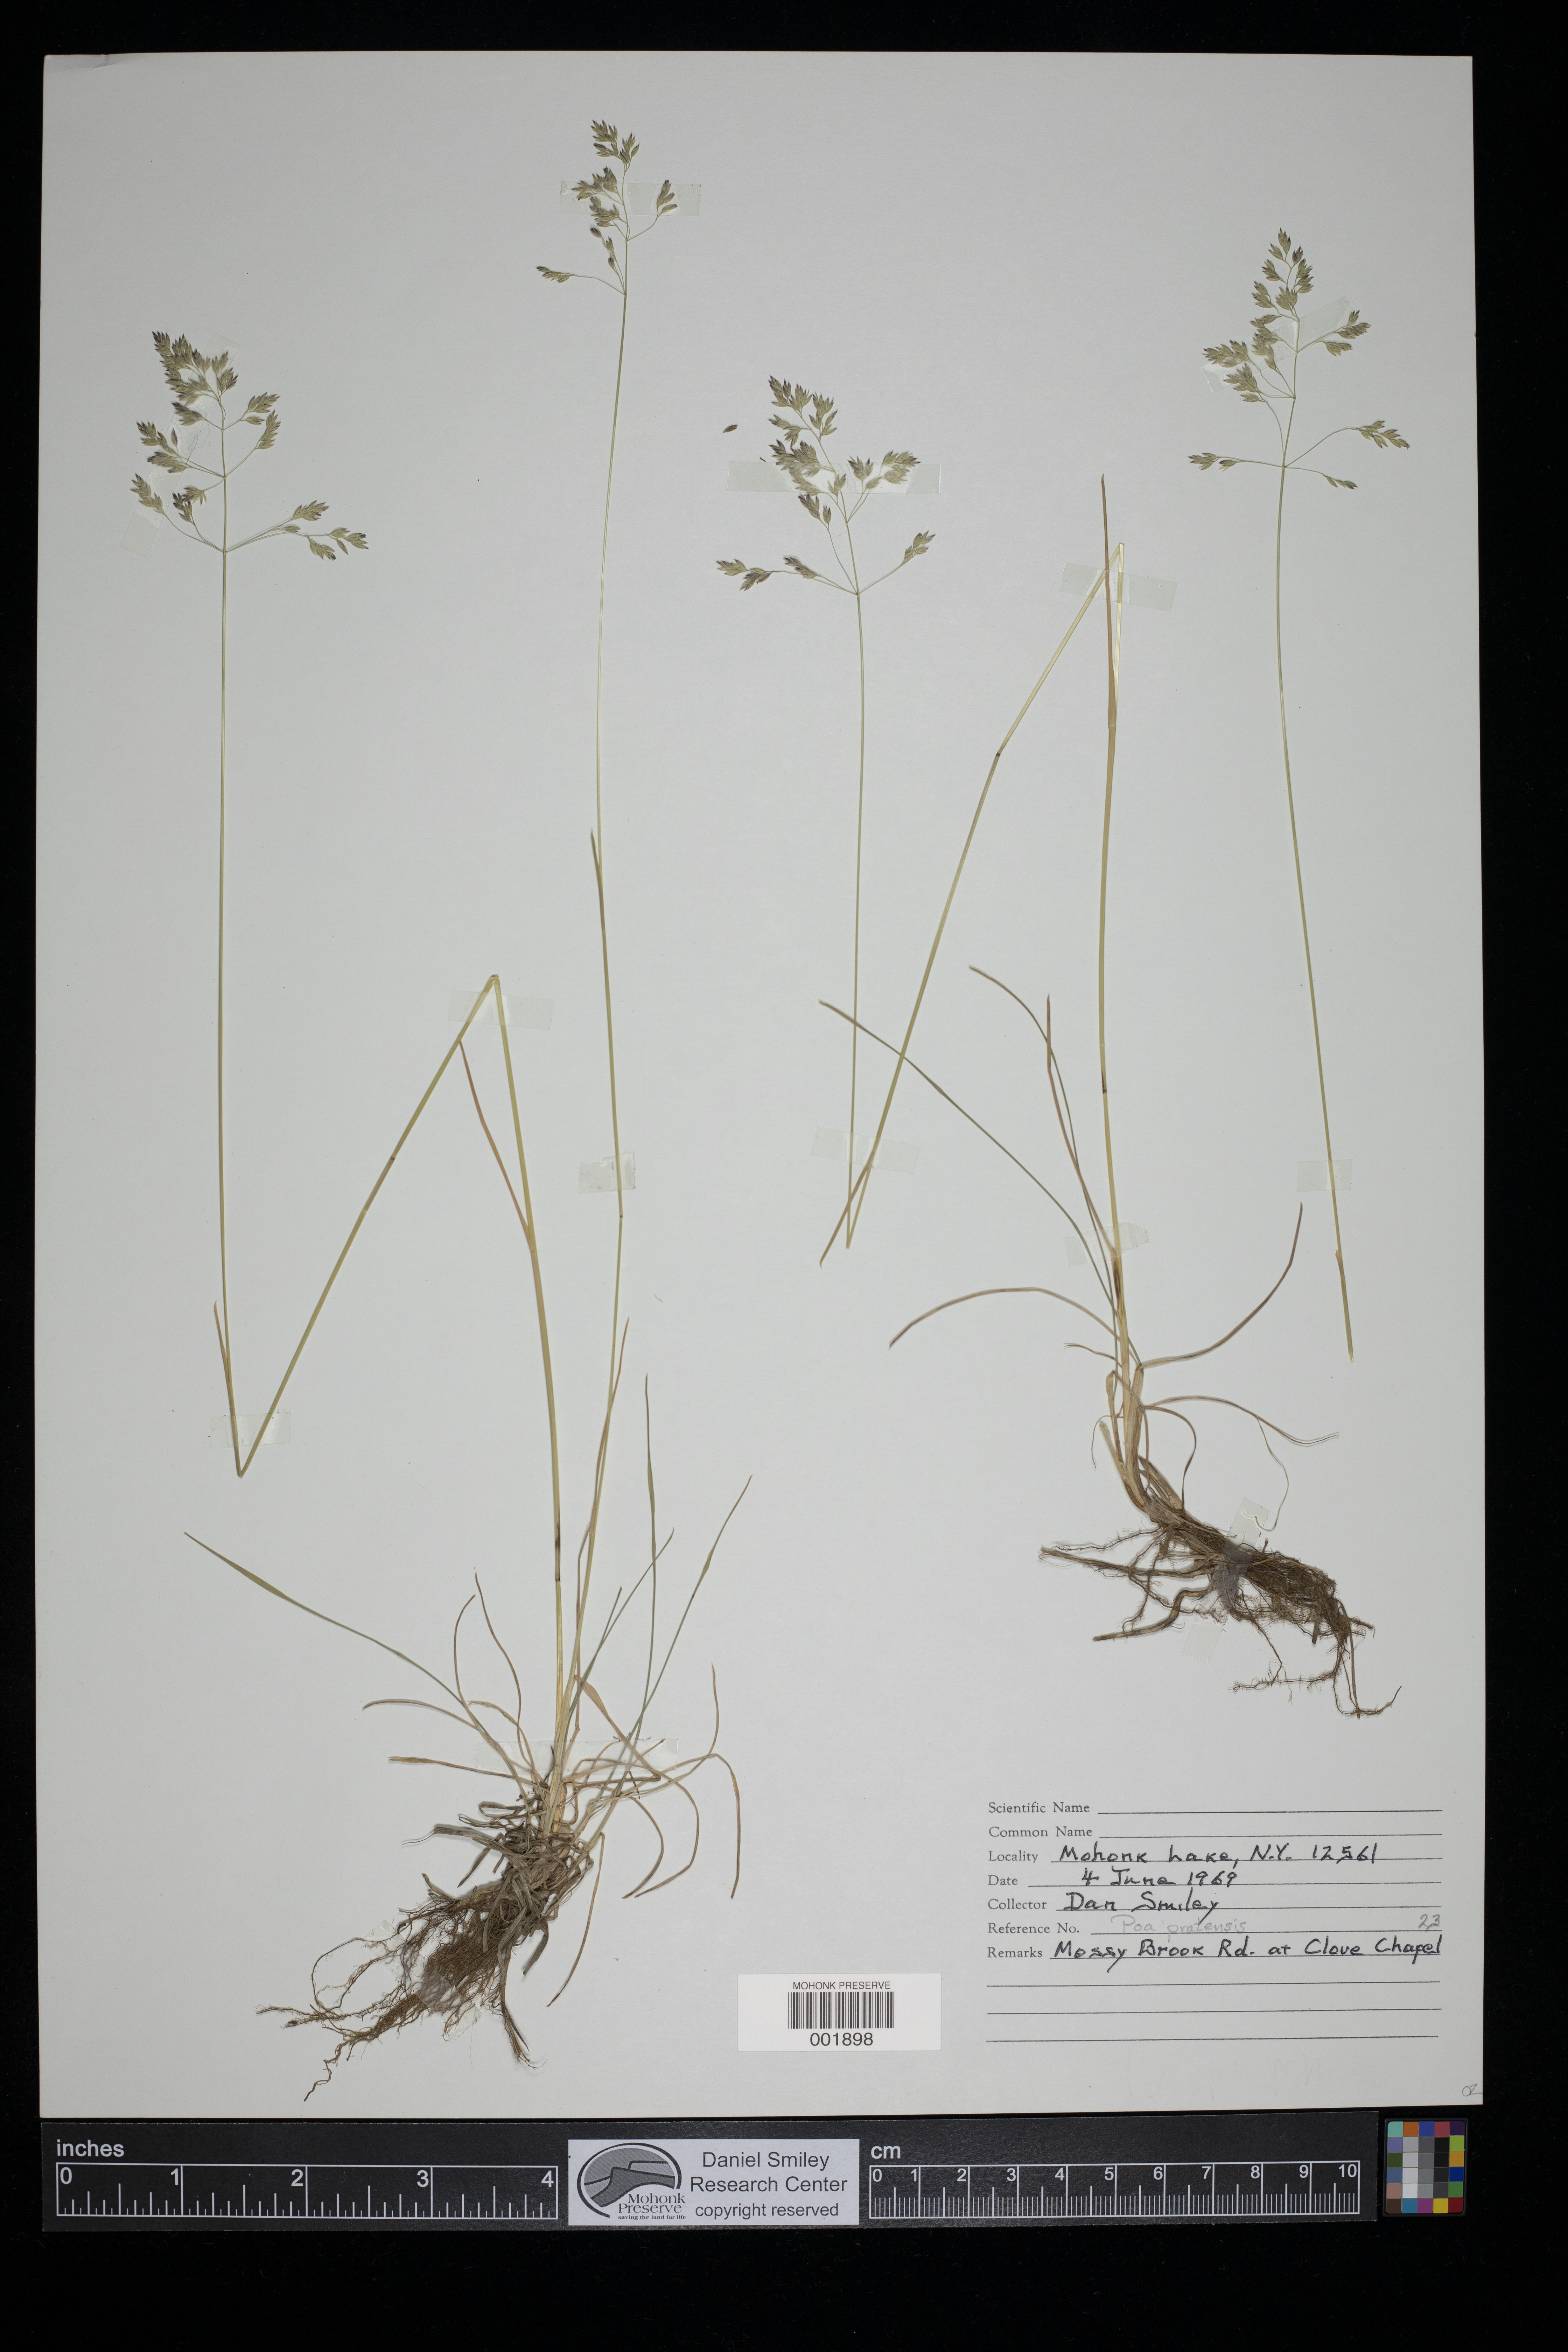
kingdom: Plantae
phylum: Tracheophyta
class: Liliopsida
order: Poales
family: Poaceae
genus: Poa
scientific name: Poa pratensis
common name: Kentucky bluegrass
